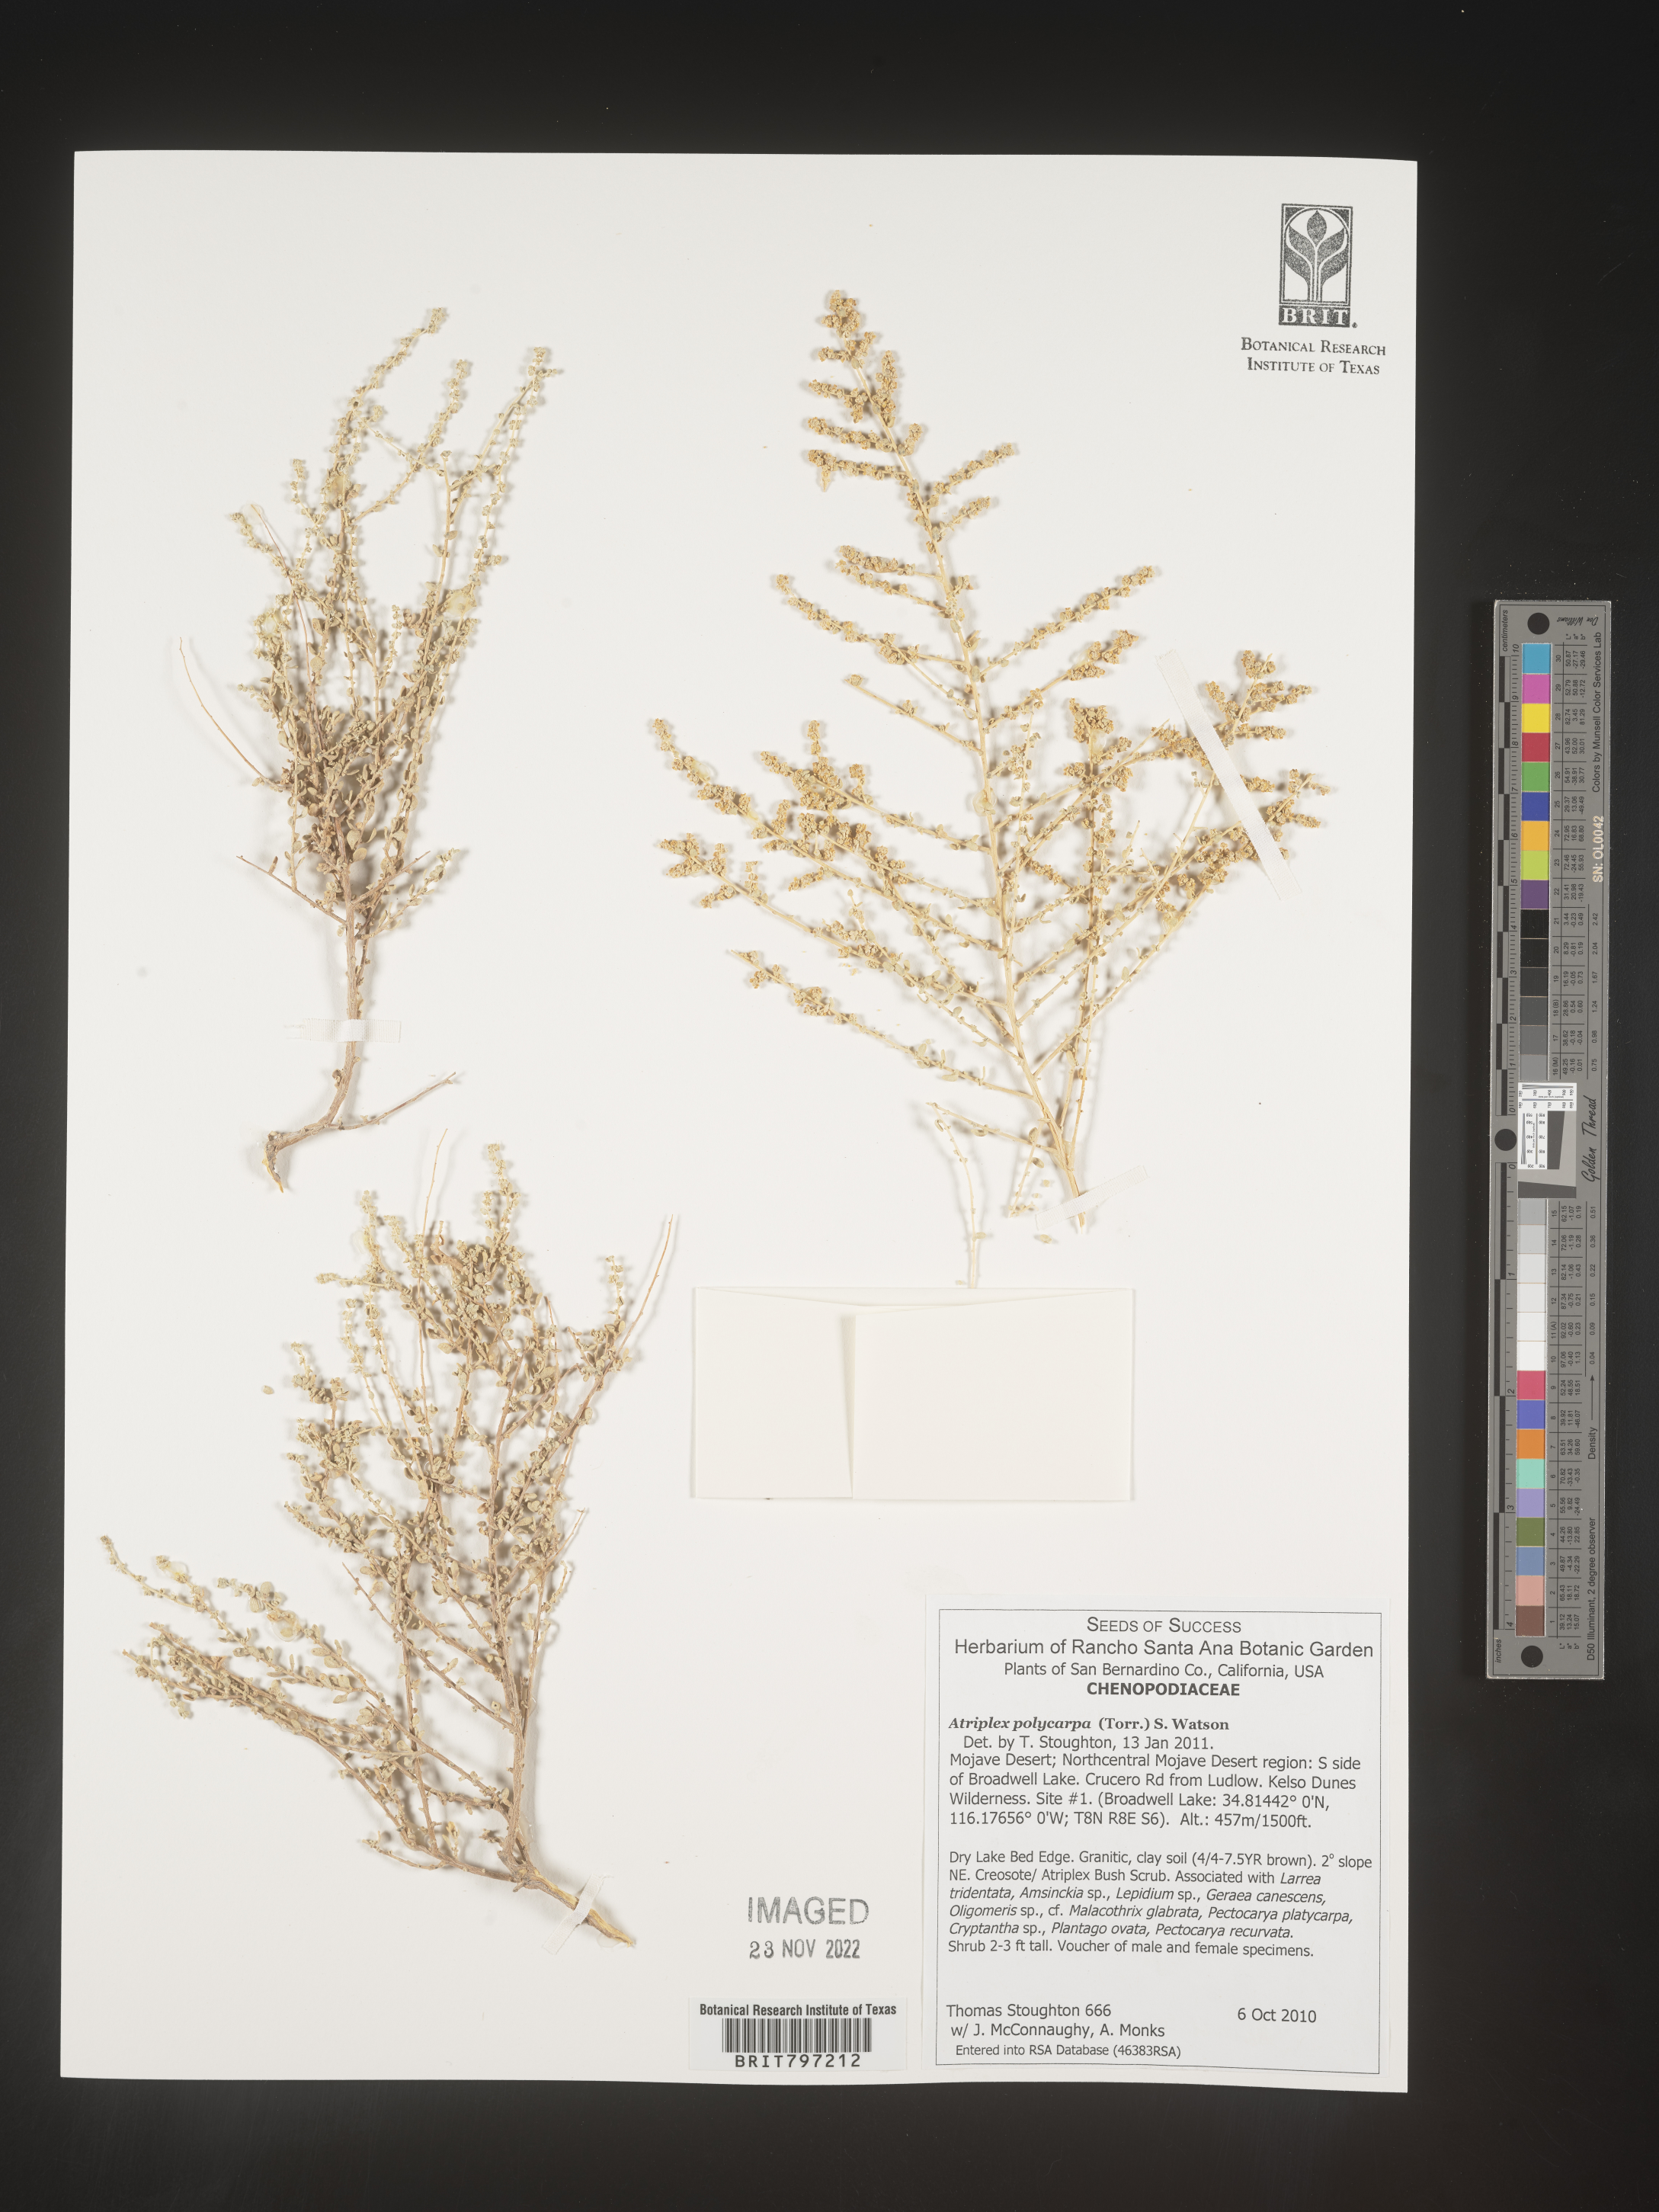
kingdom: Plantae
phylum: Tracheophyta
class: Magnoliopsida
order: Caryophyllales
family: Amaranthaceae
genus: Atriplex
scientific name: Atriplex polycarpa
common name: Desert saltbush
